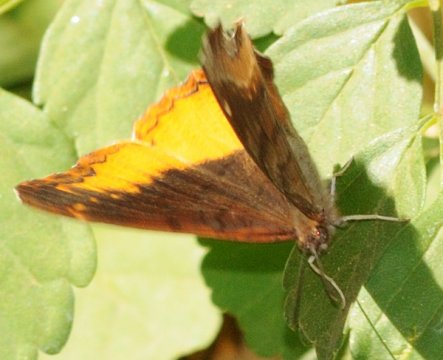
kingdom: Animalia
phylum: Arthropoda
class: Insecta
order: Lepidoptera
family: Nymphalidae
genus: Eurytela
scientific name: Eurytela dryope
